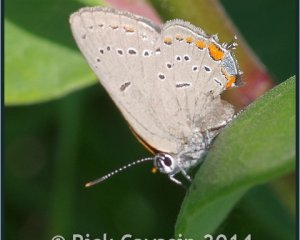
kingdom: Animalia
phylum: Arthropoda
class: Insecta
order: Lepidoptera
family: Lycaenidae
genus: Strymon
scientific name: Strymon acadica
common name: Acadian Hairstreak
